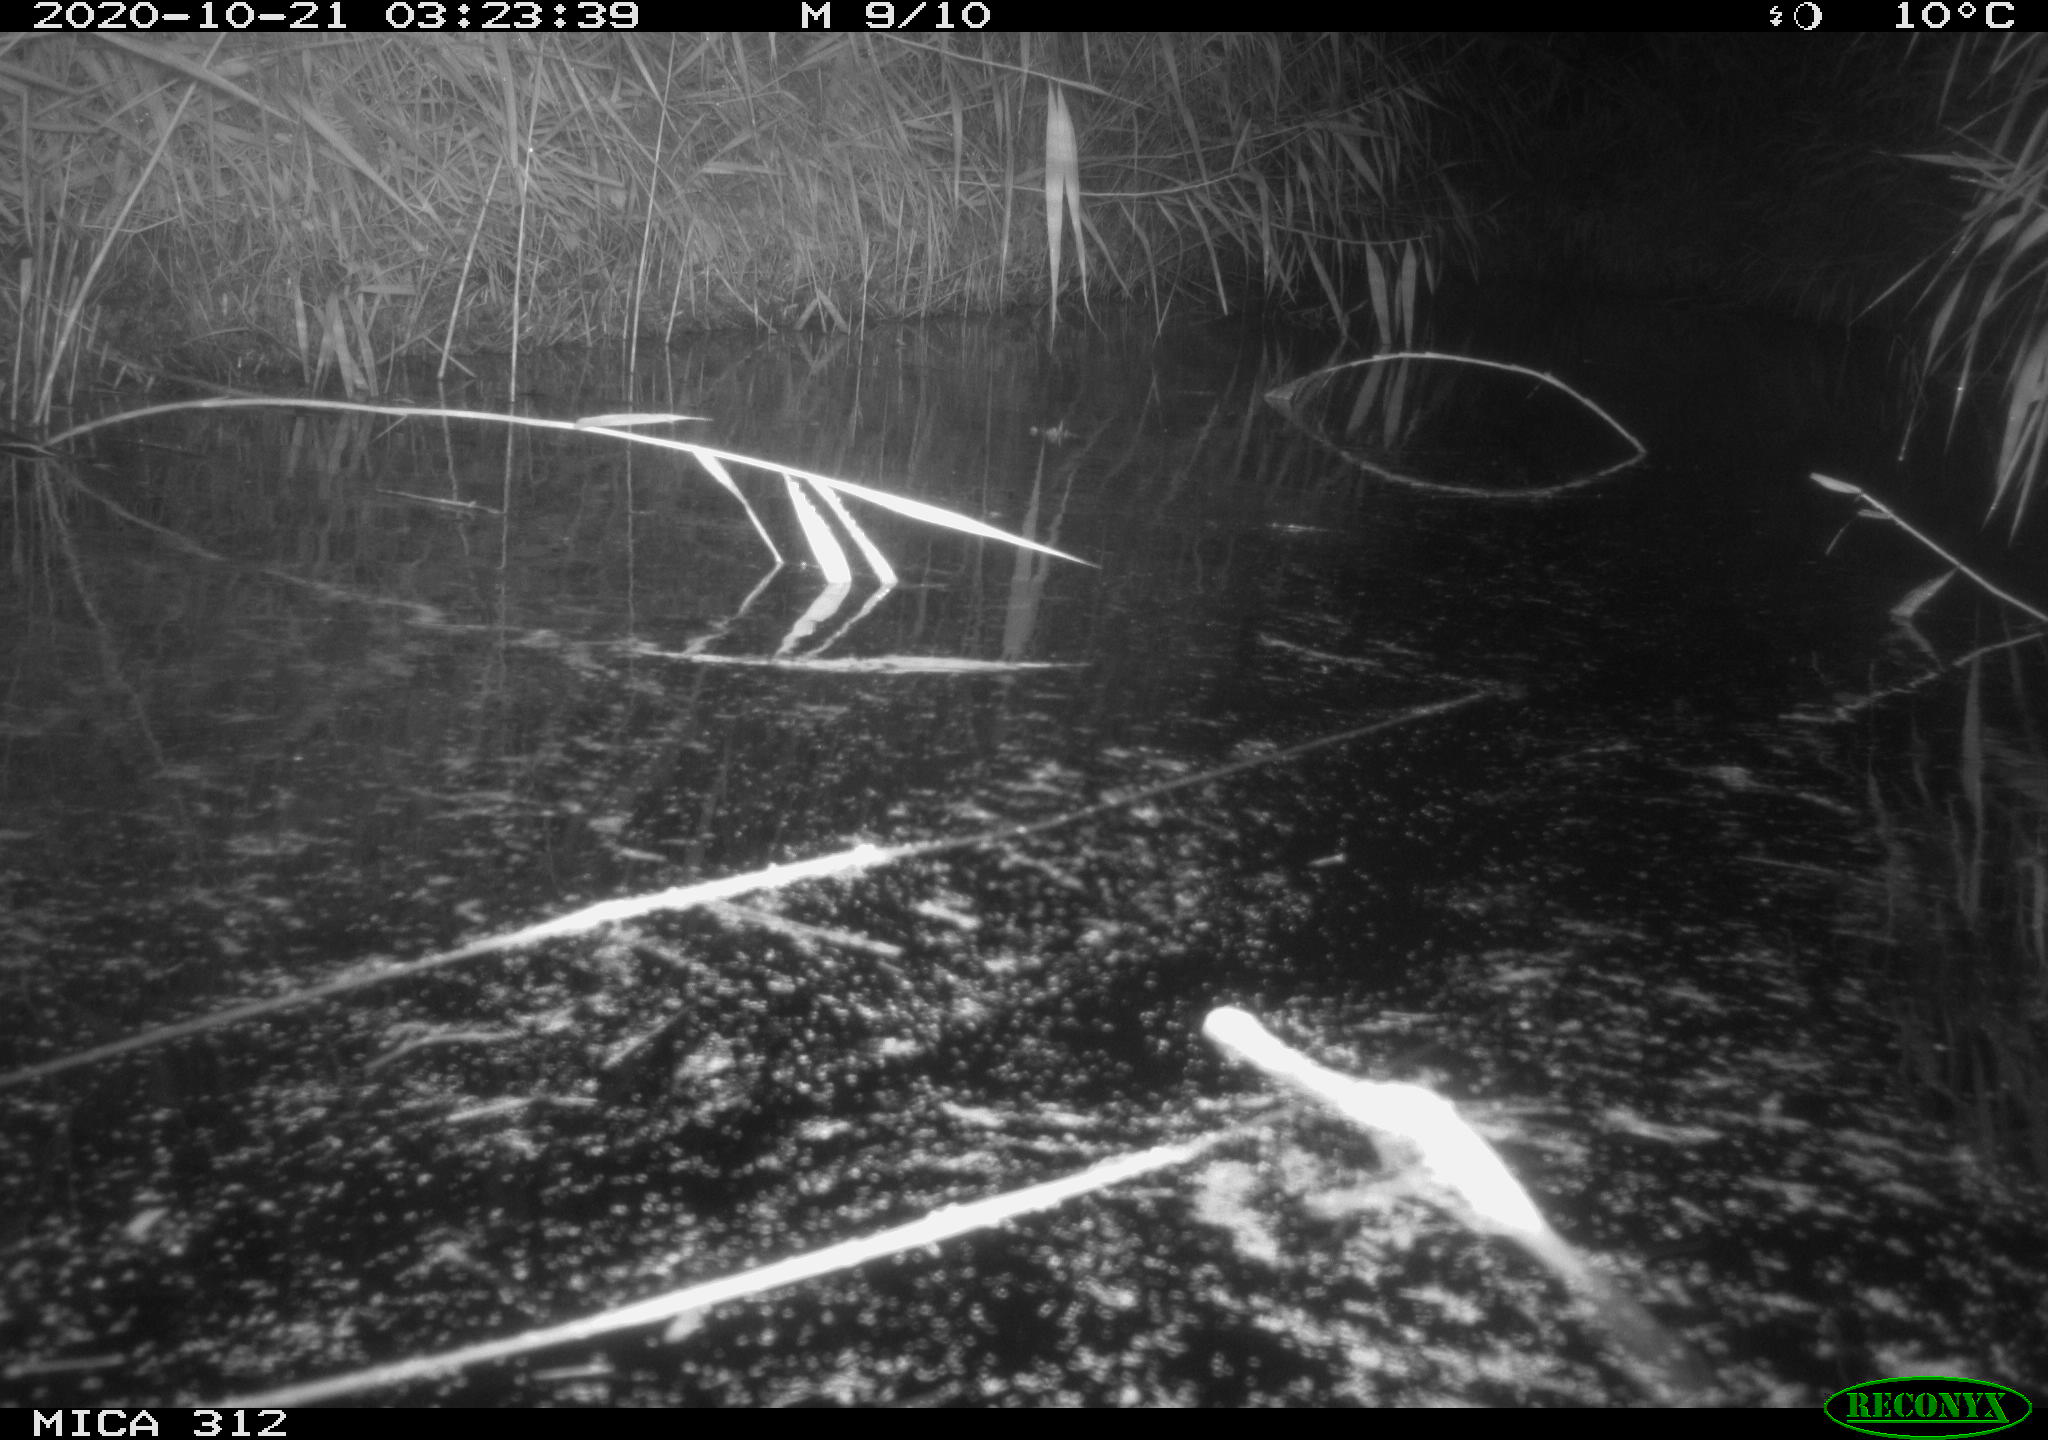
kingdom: Animalia
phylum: Chordata
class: Mammalia
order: Rodentia
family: Muridae
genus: Rattus
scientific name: Rattus norvegicus
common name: Brown rat
